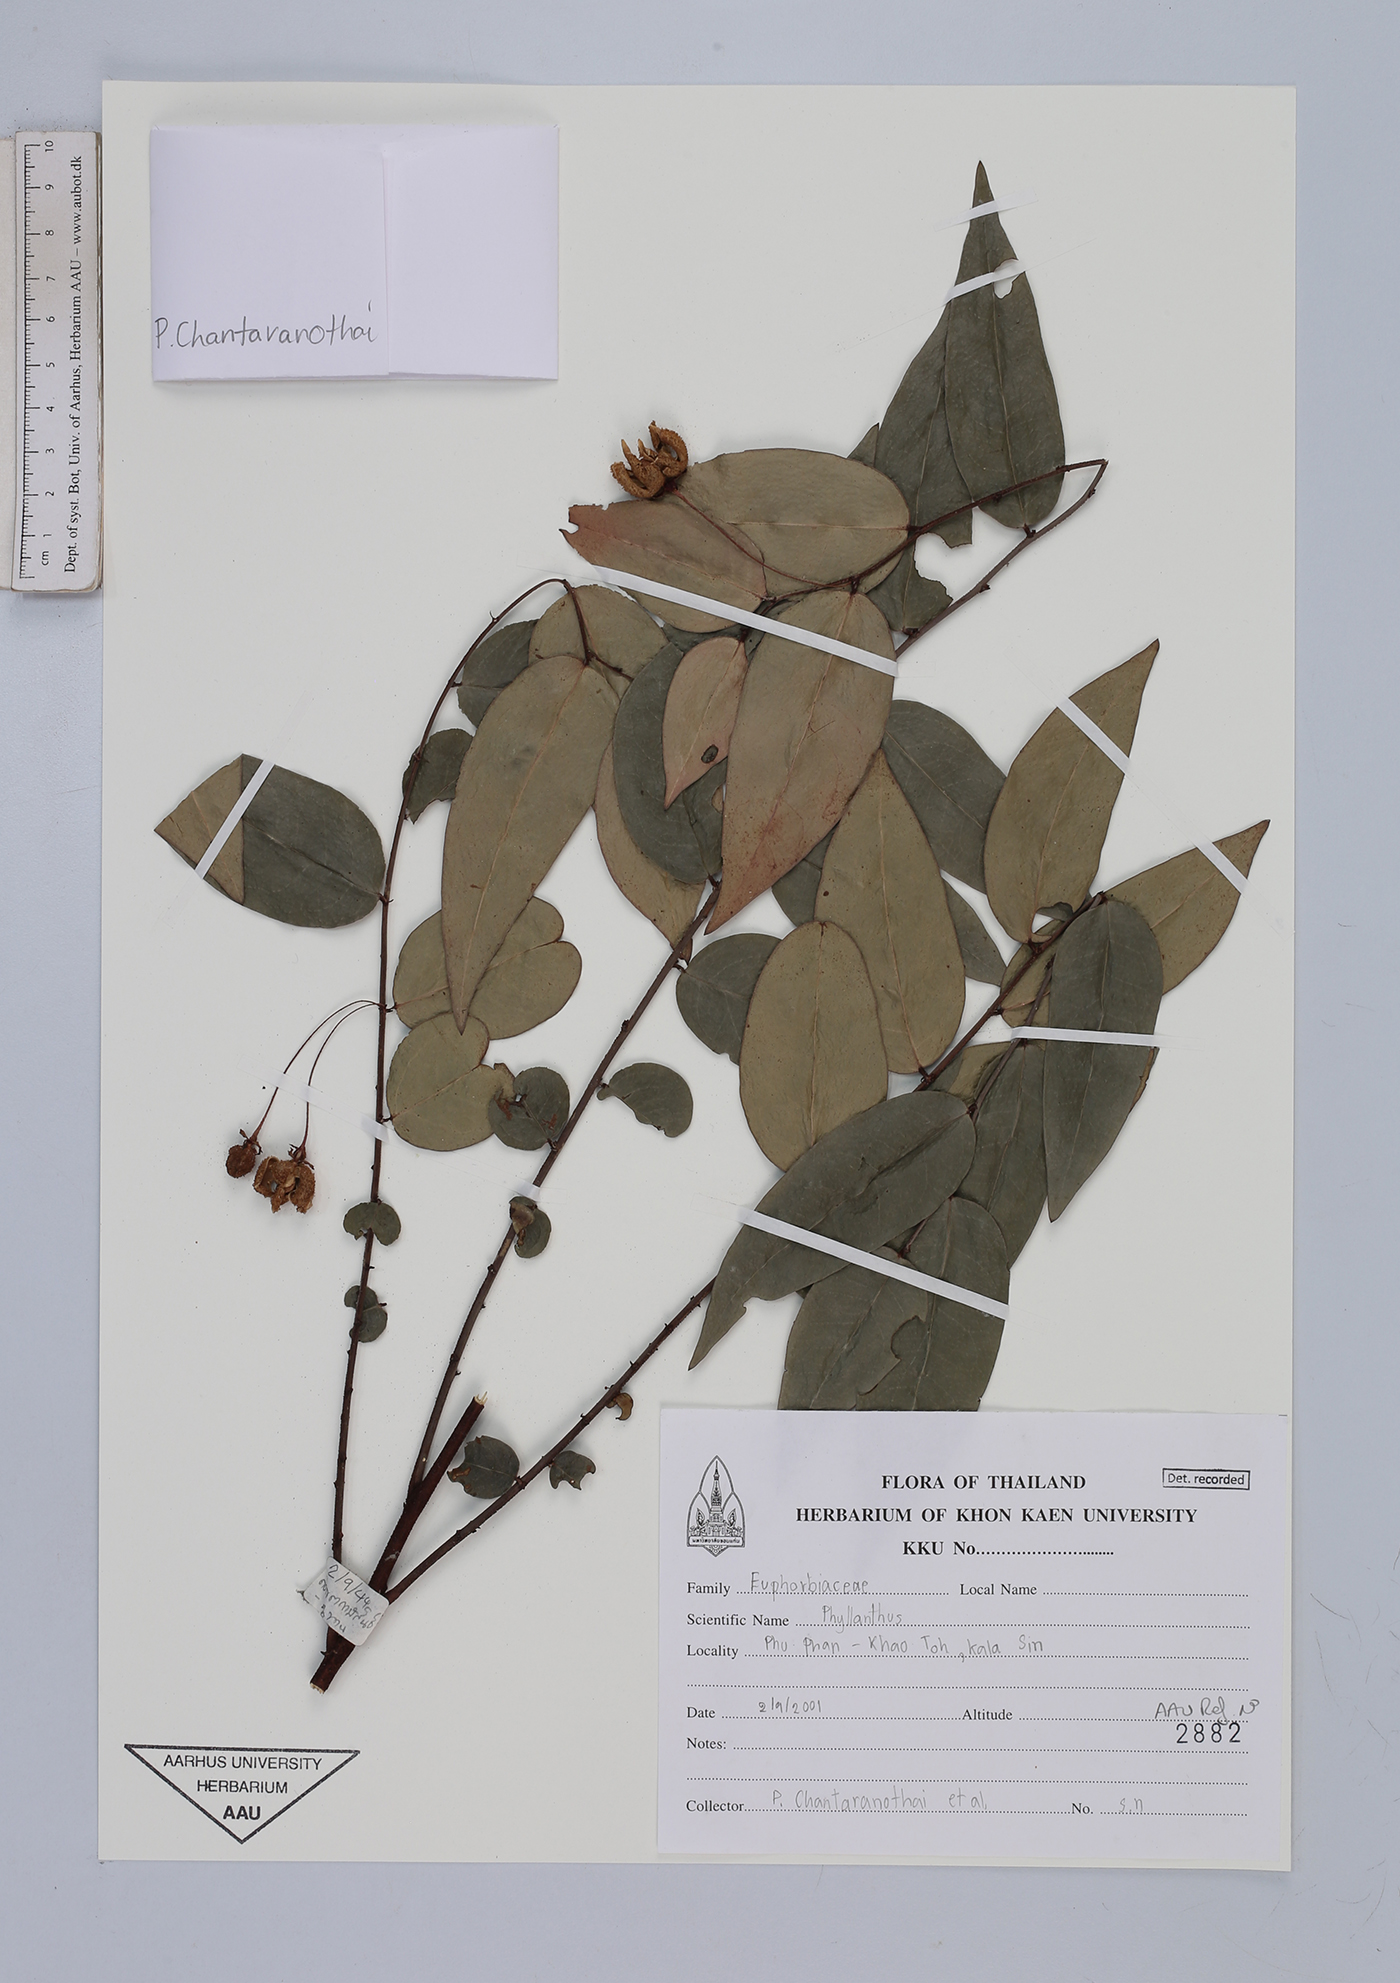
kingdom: Plantae
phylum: Tracheophyta
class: Magnoliopsida
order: Malpighiales
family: Euphorbiaceae
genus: Phyllanthos
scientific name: Phyllanthos
